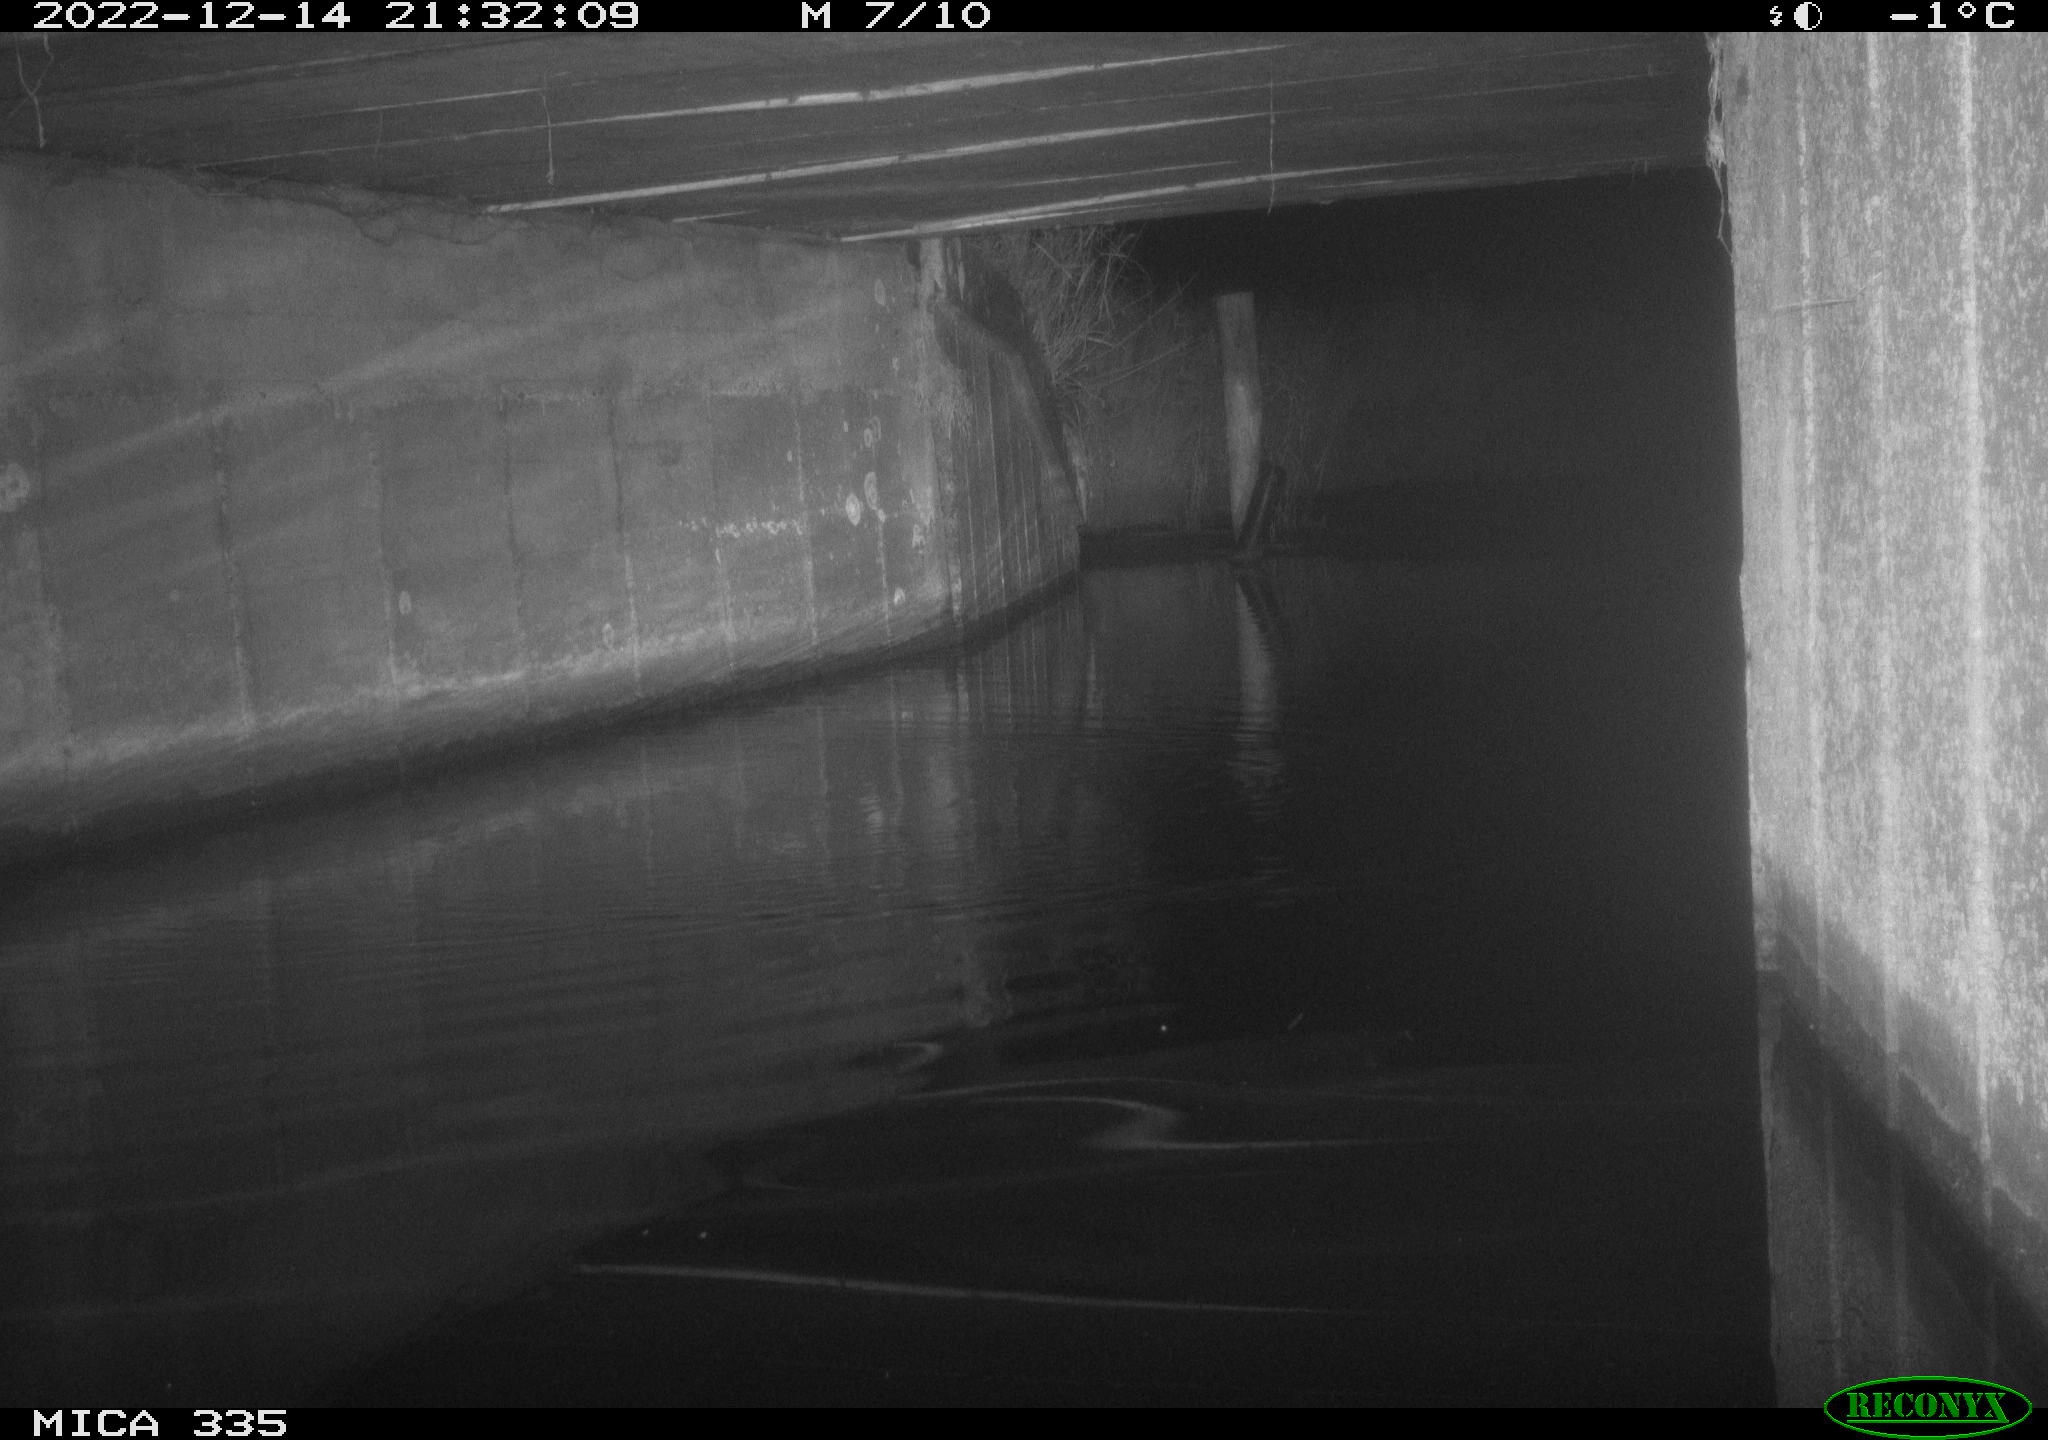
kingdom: Animalia
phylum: Chordata
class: Mammalia
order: Rodentia
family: Muridae
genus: Rattus
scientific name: Rattus norvegicus
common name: Brown rat
